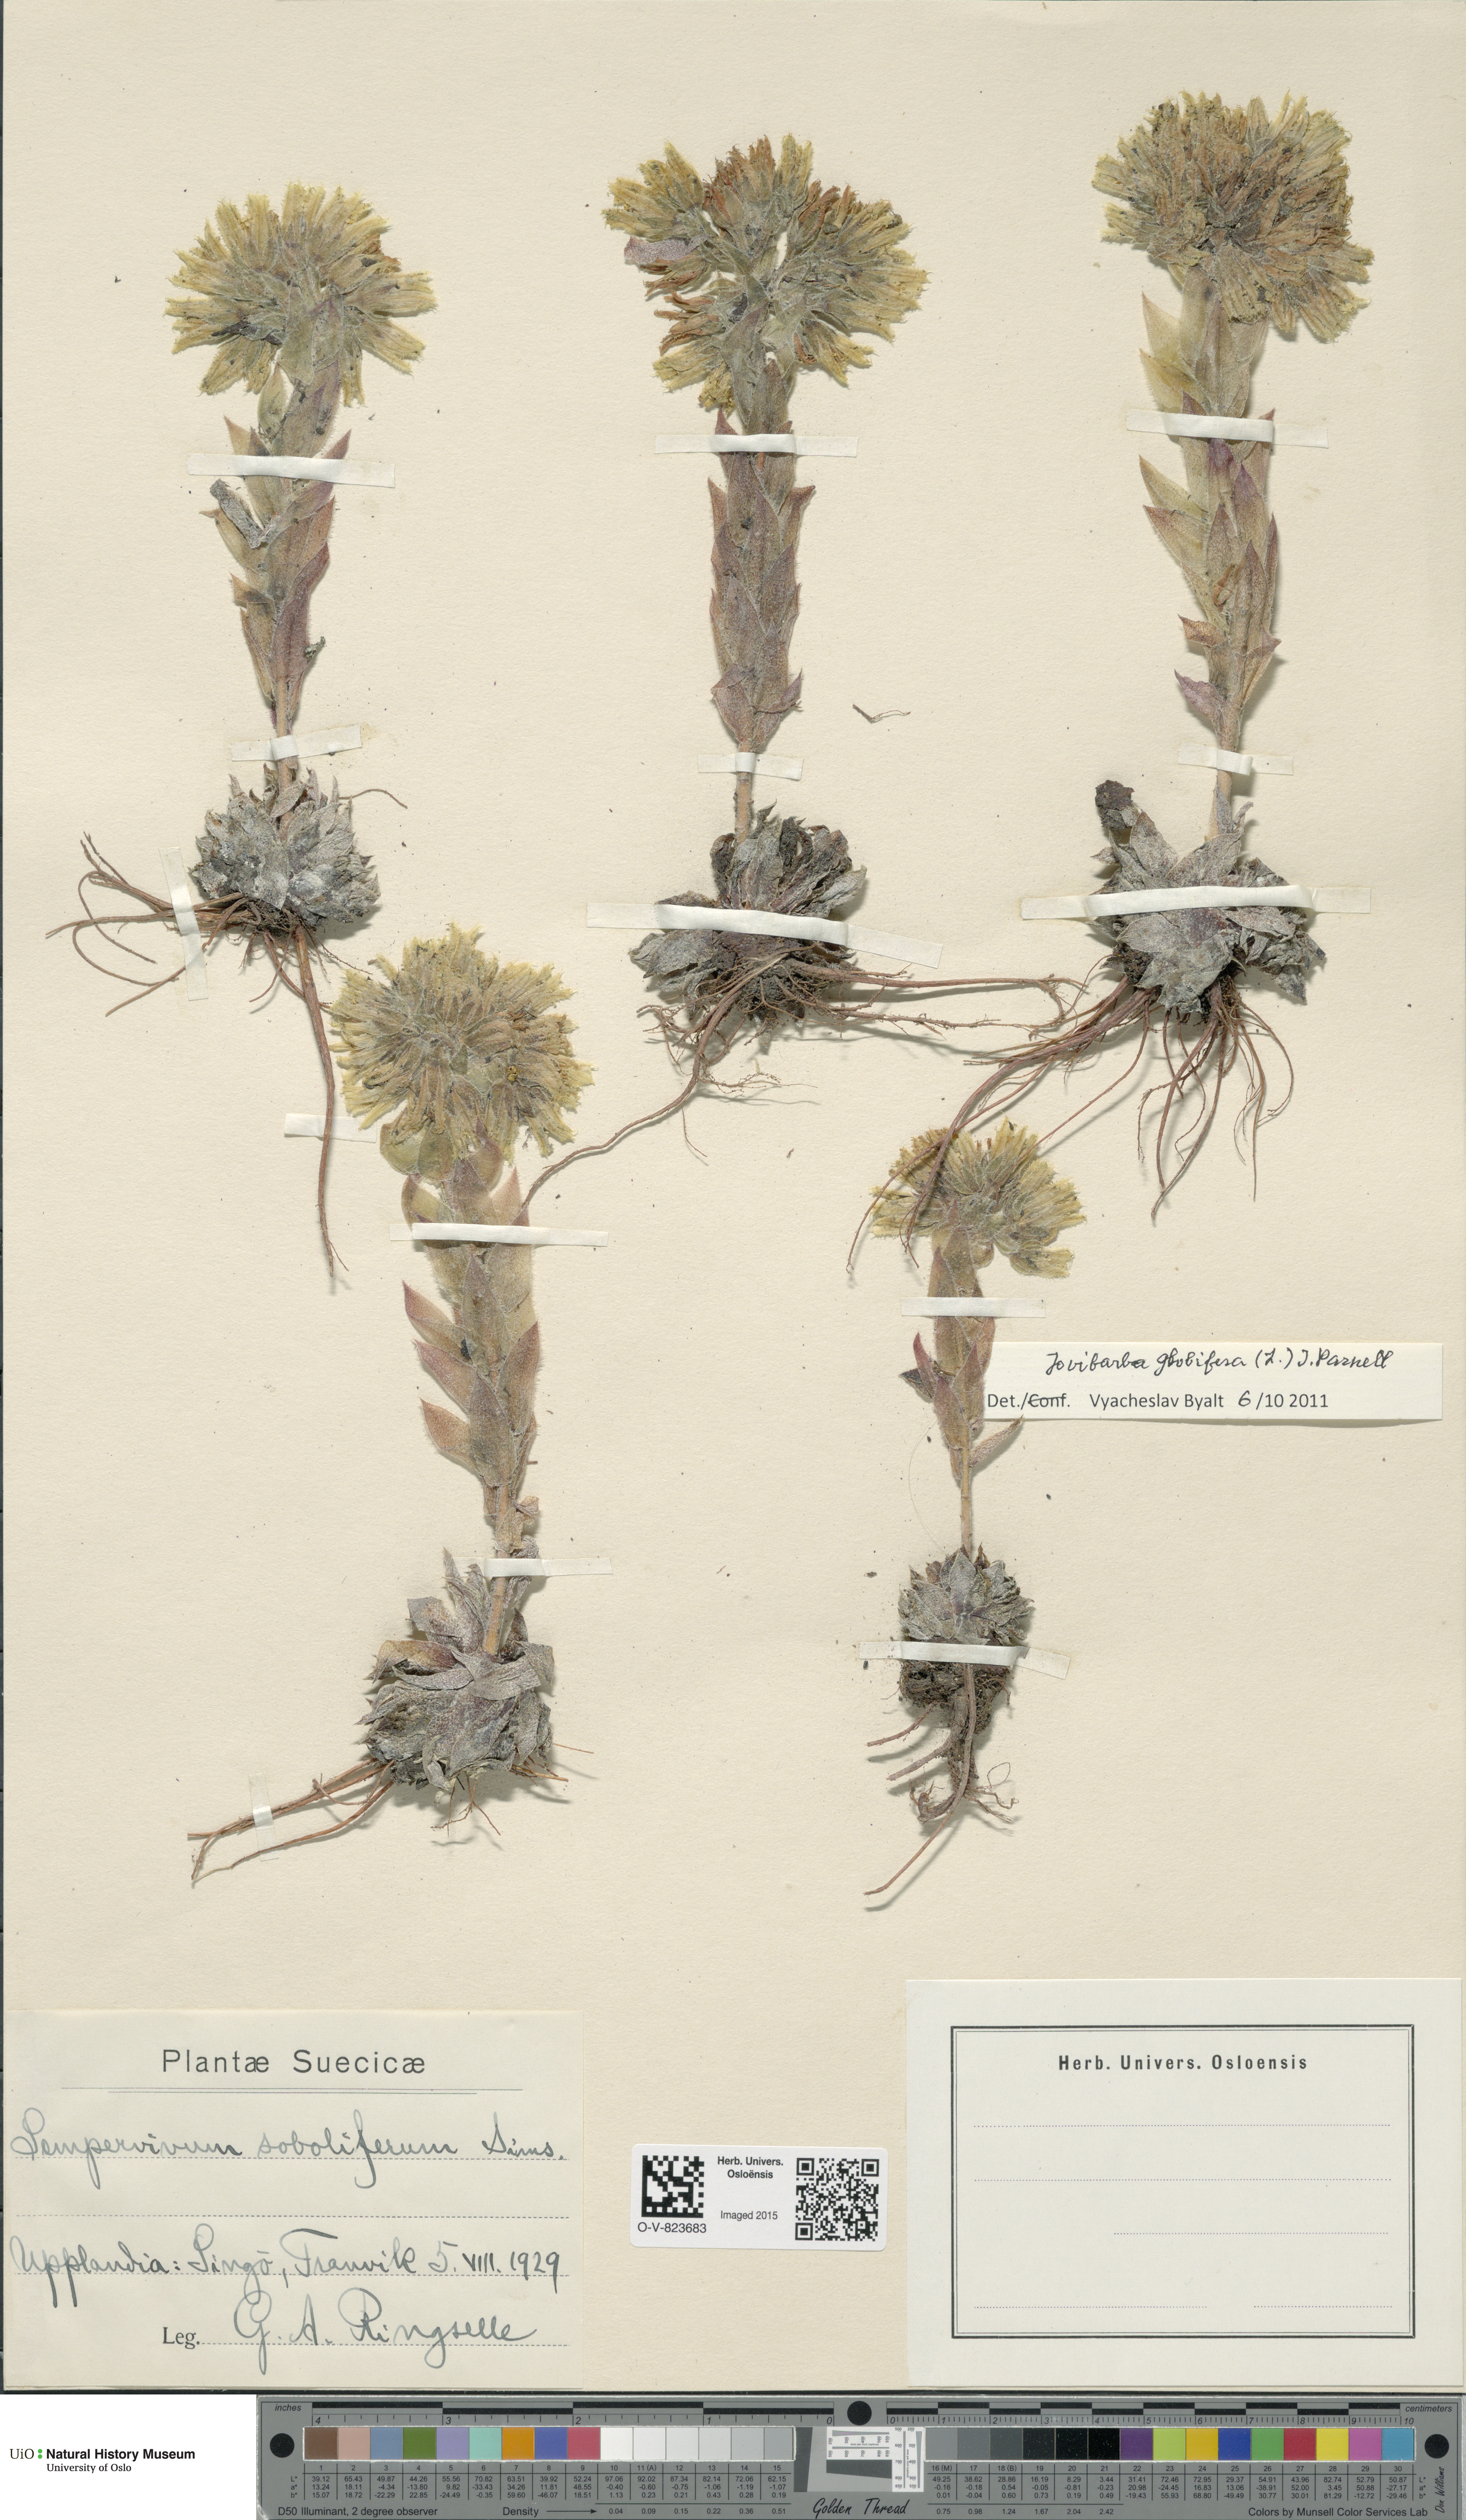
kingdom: Plantae
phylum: Tracheophyta
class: Magnoliopsida
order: Saxifragales
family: Crassulaceae
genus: Sempervivum
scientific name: Sempervivum globiferum
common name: Rolling hen-and-chicks
